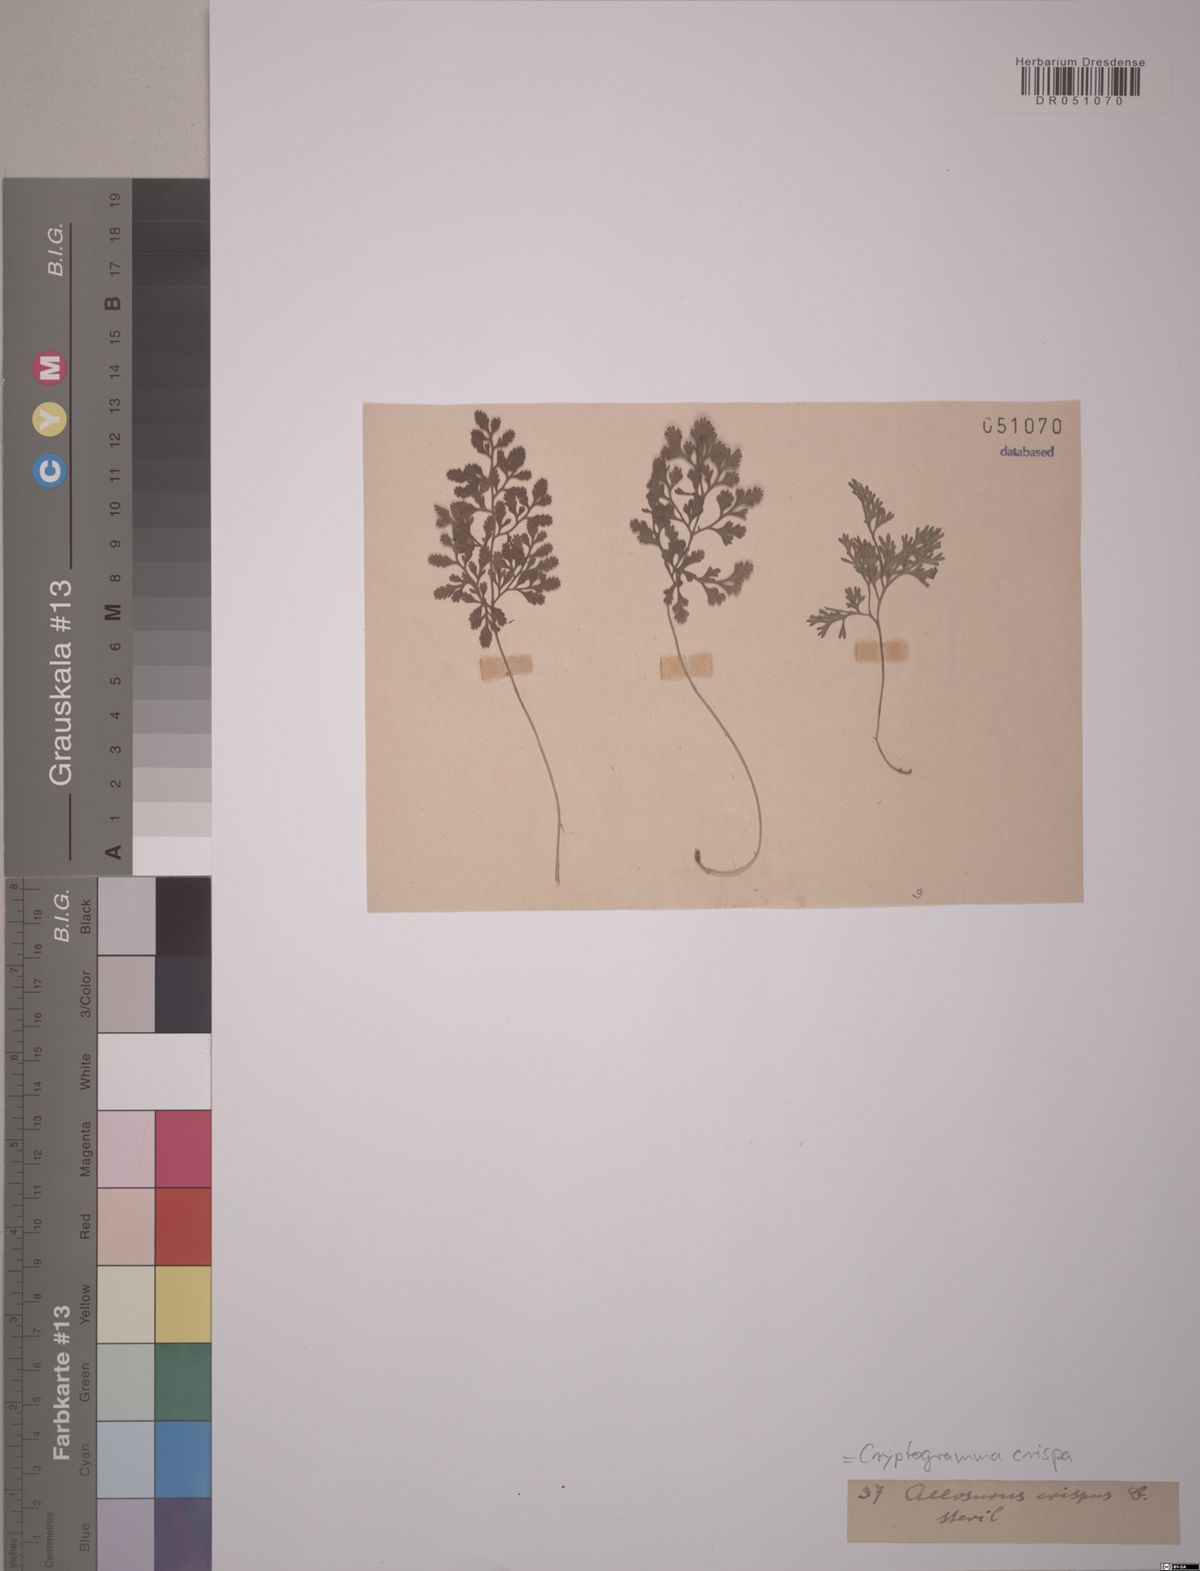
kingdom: Plantae
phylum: Tracheophyta
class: Polypodiopsida
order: Polypodiales
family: Pteridaceae
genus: Cryptogramma
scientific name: Cryptogramma crispa
